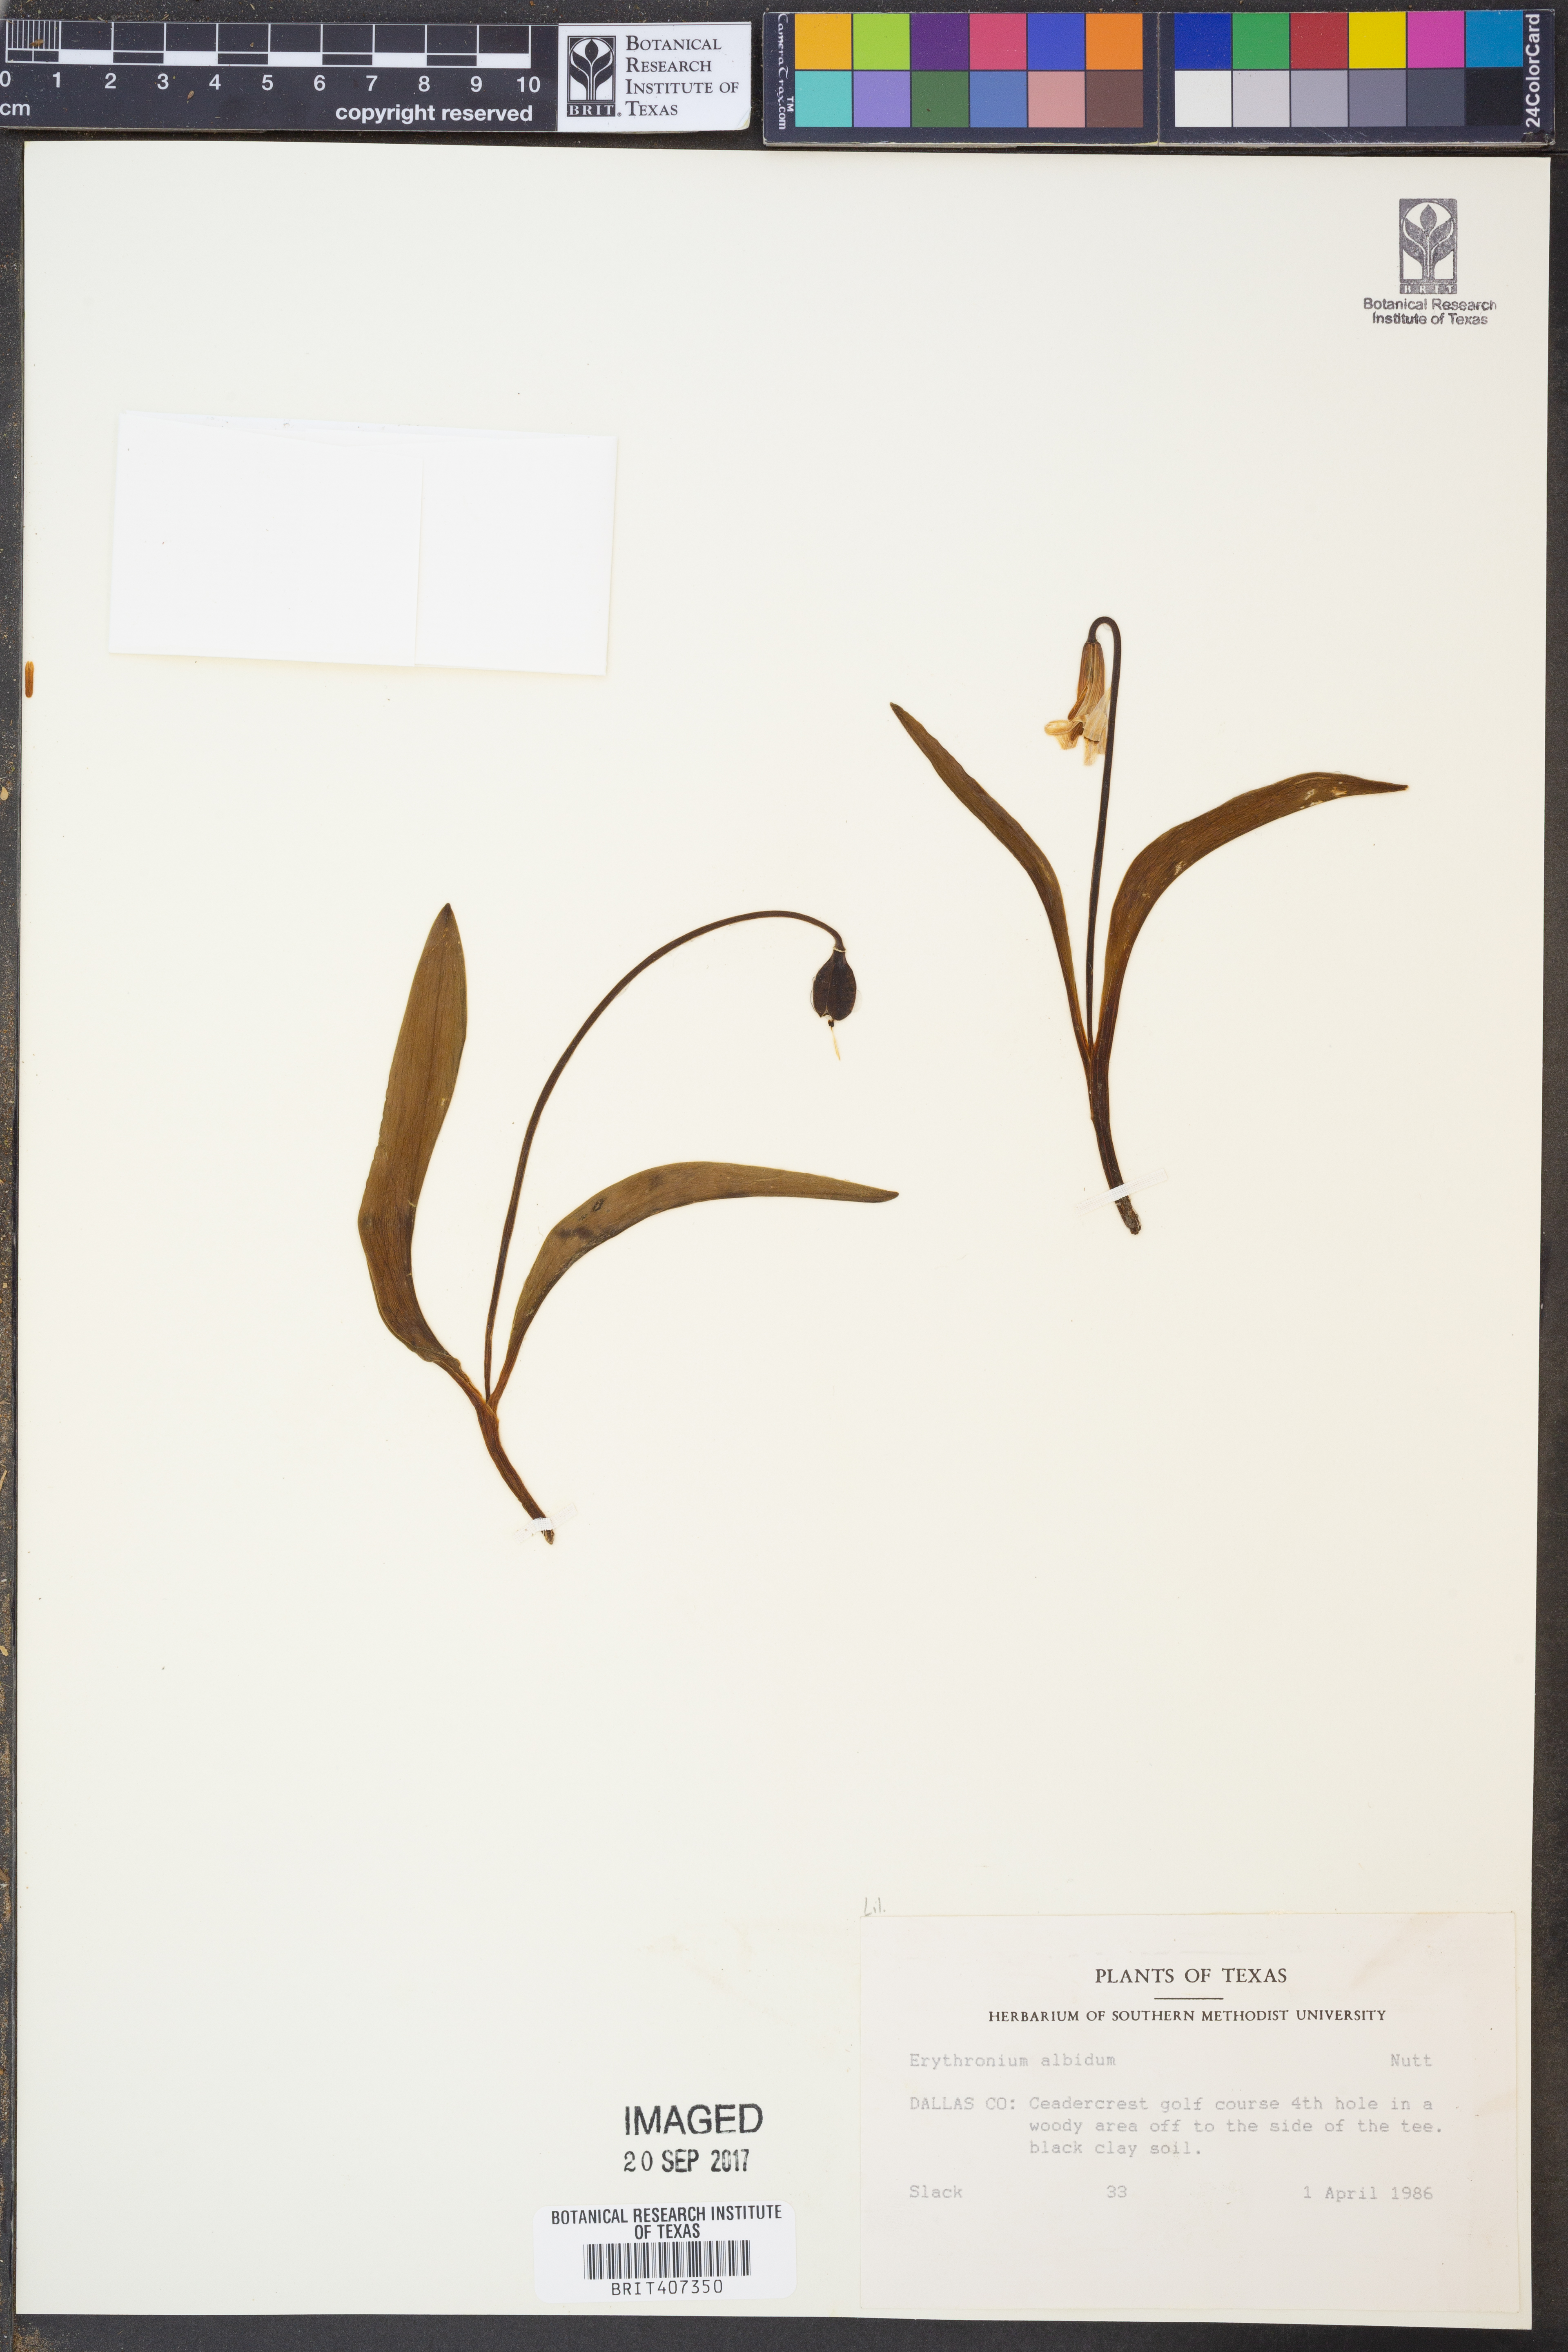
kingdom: Plantae
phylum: Tracheophyta
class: Liliopsida
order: Liliales
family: Liliaceae
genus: Erythronium
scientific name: Erythronium albidum
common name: White trout-lily
